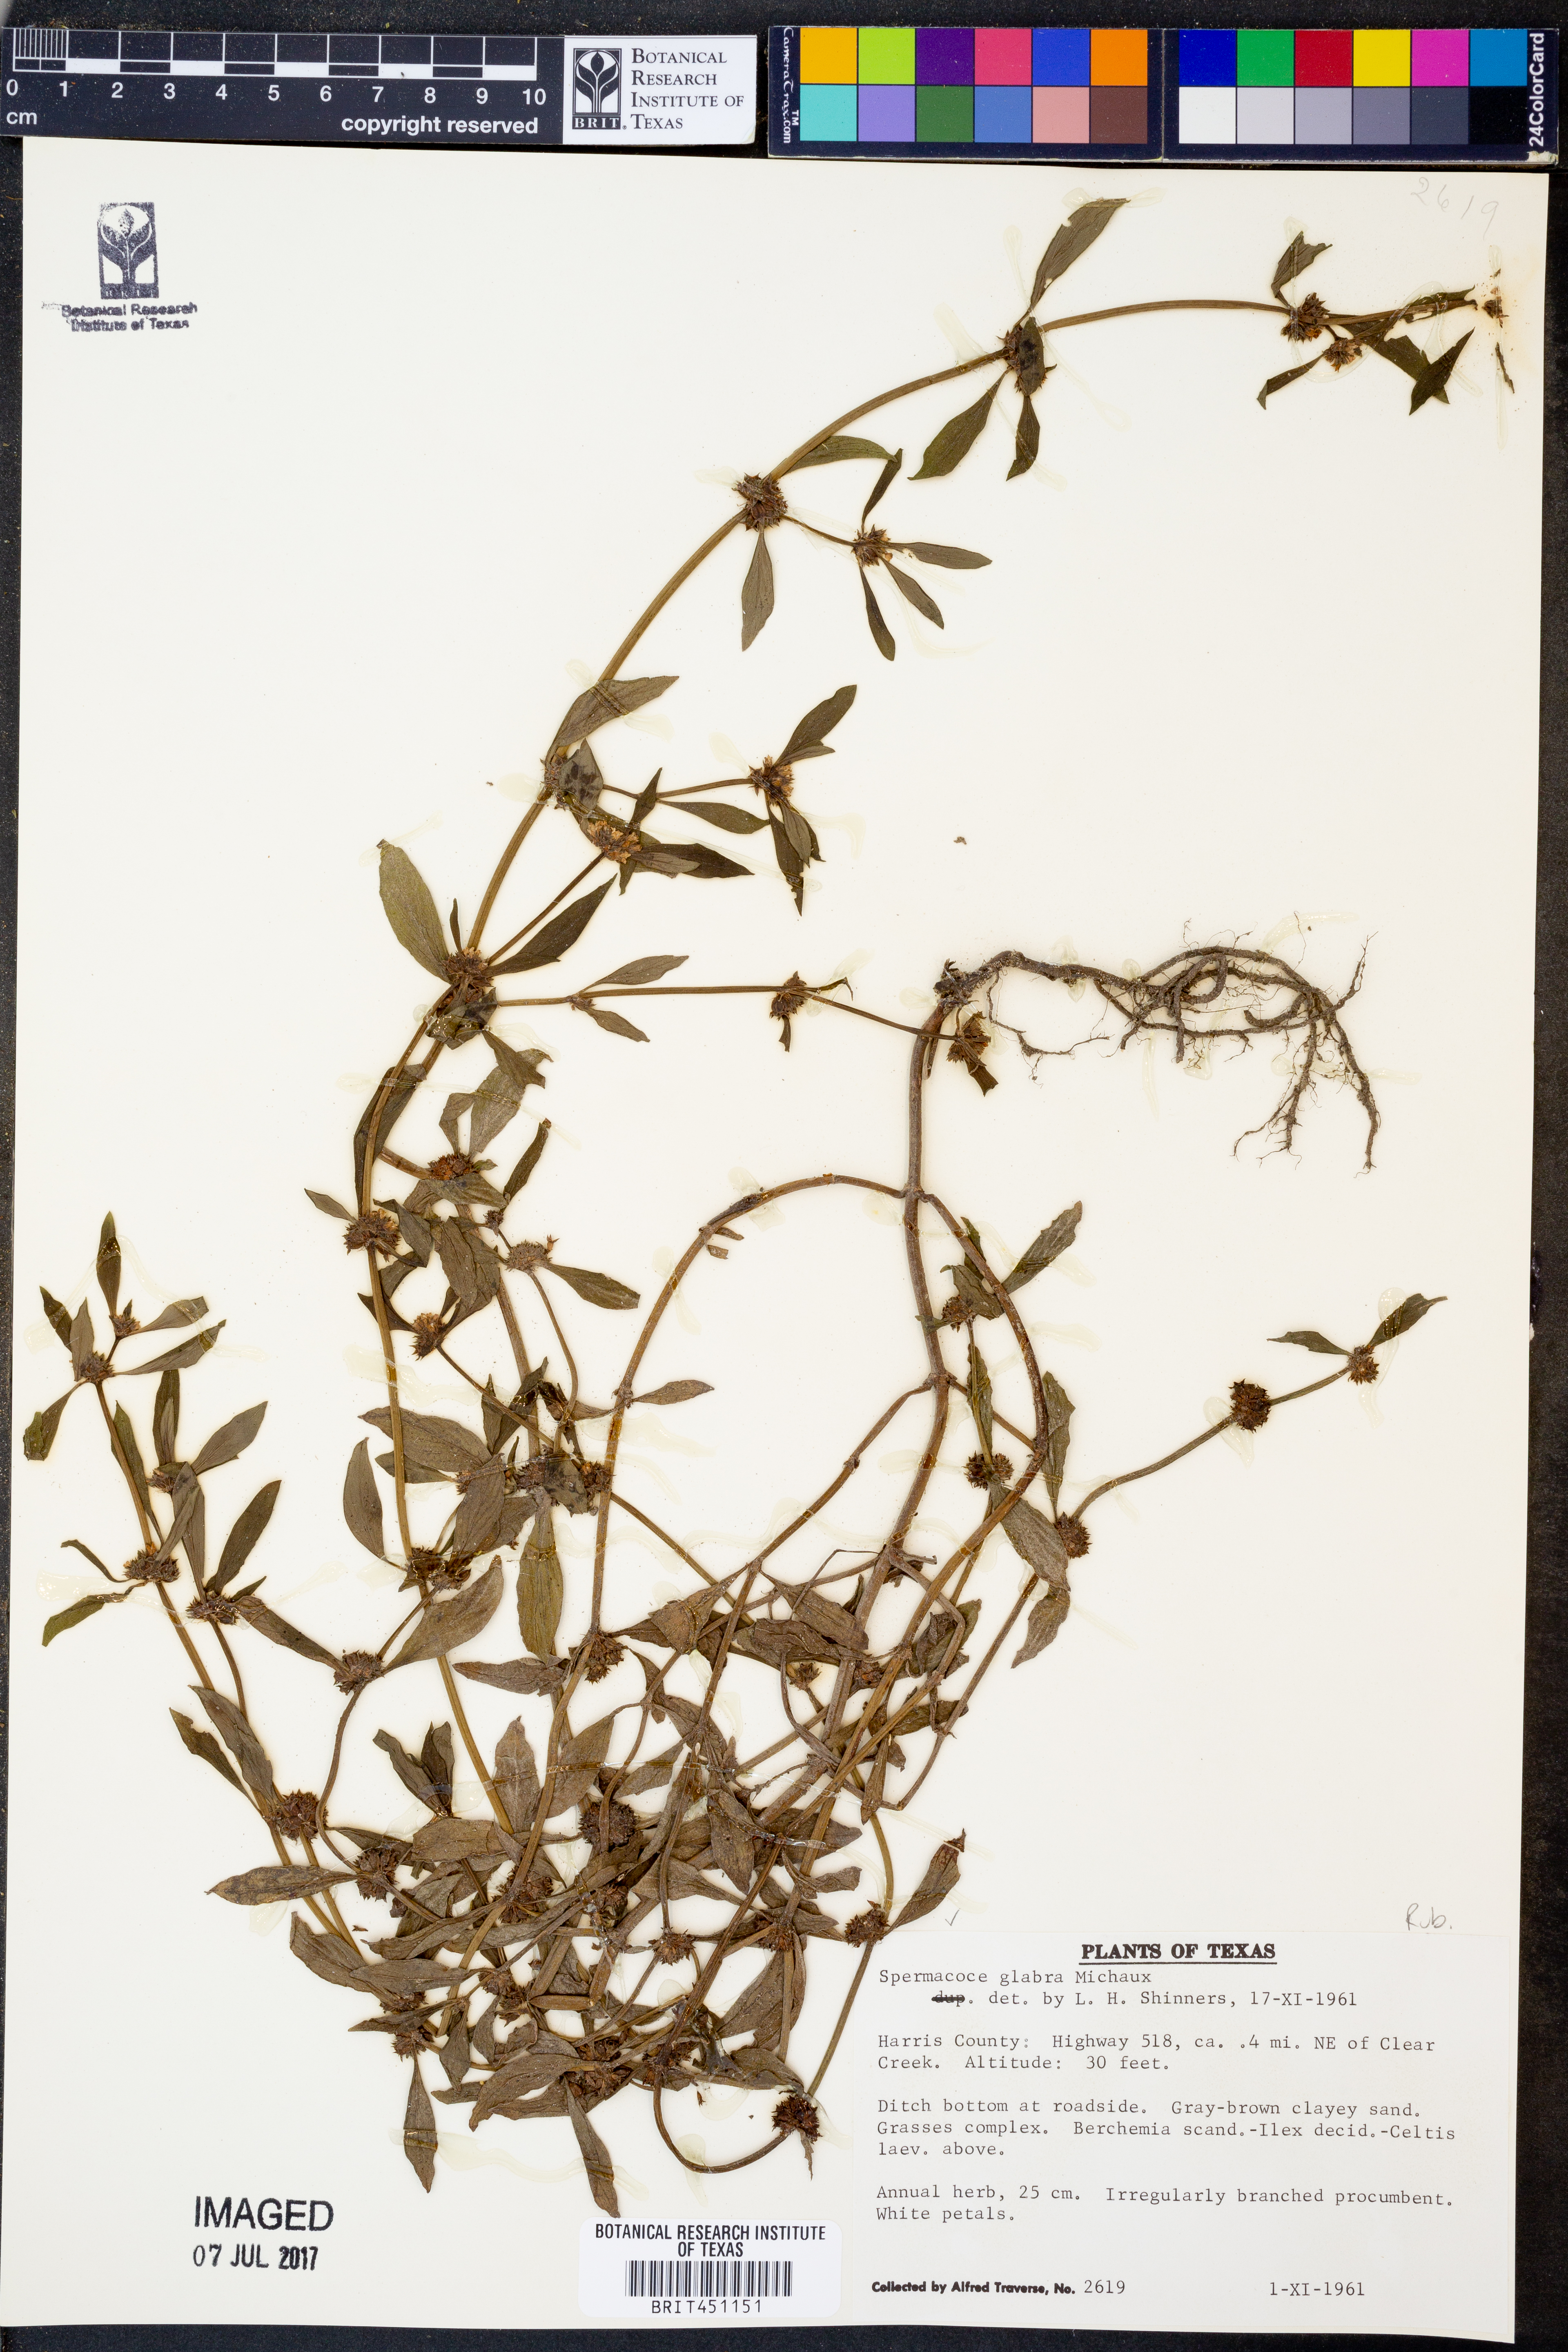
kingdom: Plantae
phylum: Tracheophyta
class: Magnoliopsida
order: Gentianales
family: Rubiaceae
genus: Spermacoce
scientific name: Spermacoce glabra
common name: Smooth buttonweed
